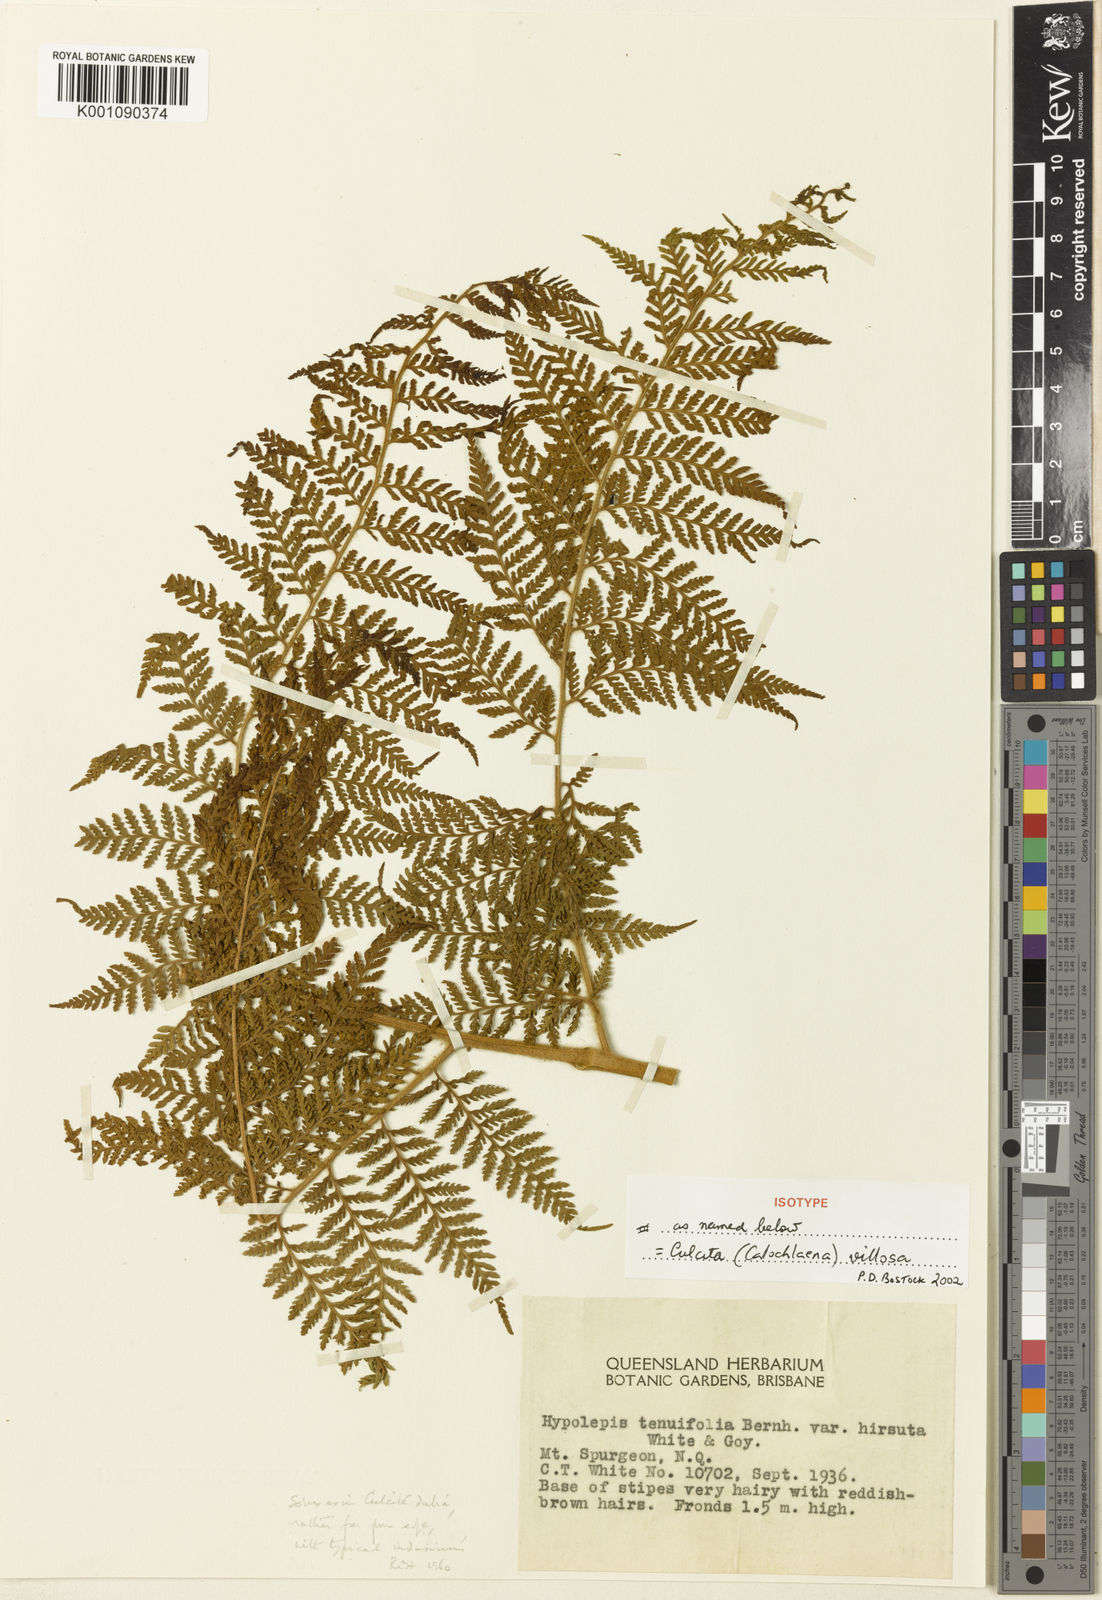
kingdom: Plantae
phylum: Tracheophyta
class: Polypodiopsida
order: Cyatheales
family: Dicksoniaceae
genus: Calochlaena
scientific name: Calochlaena villosa
